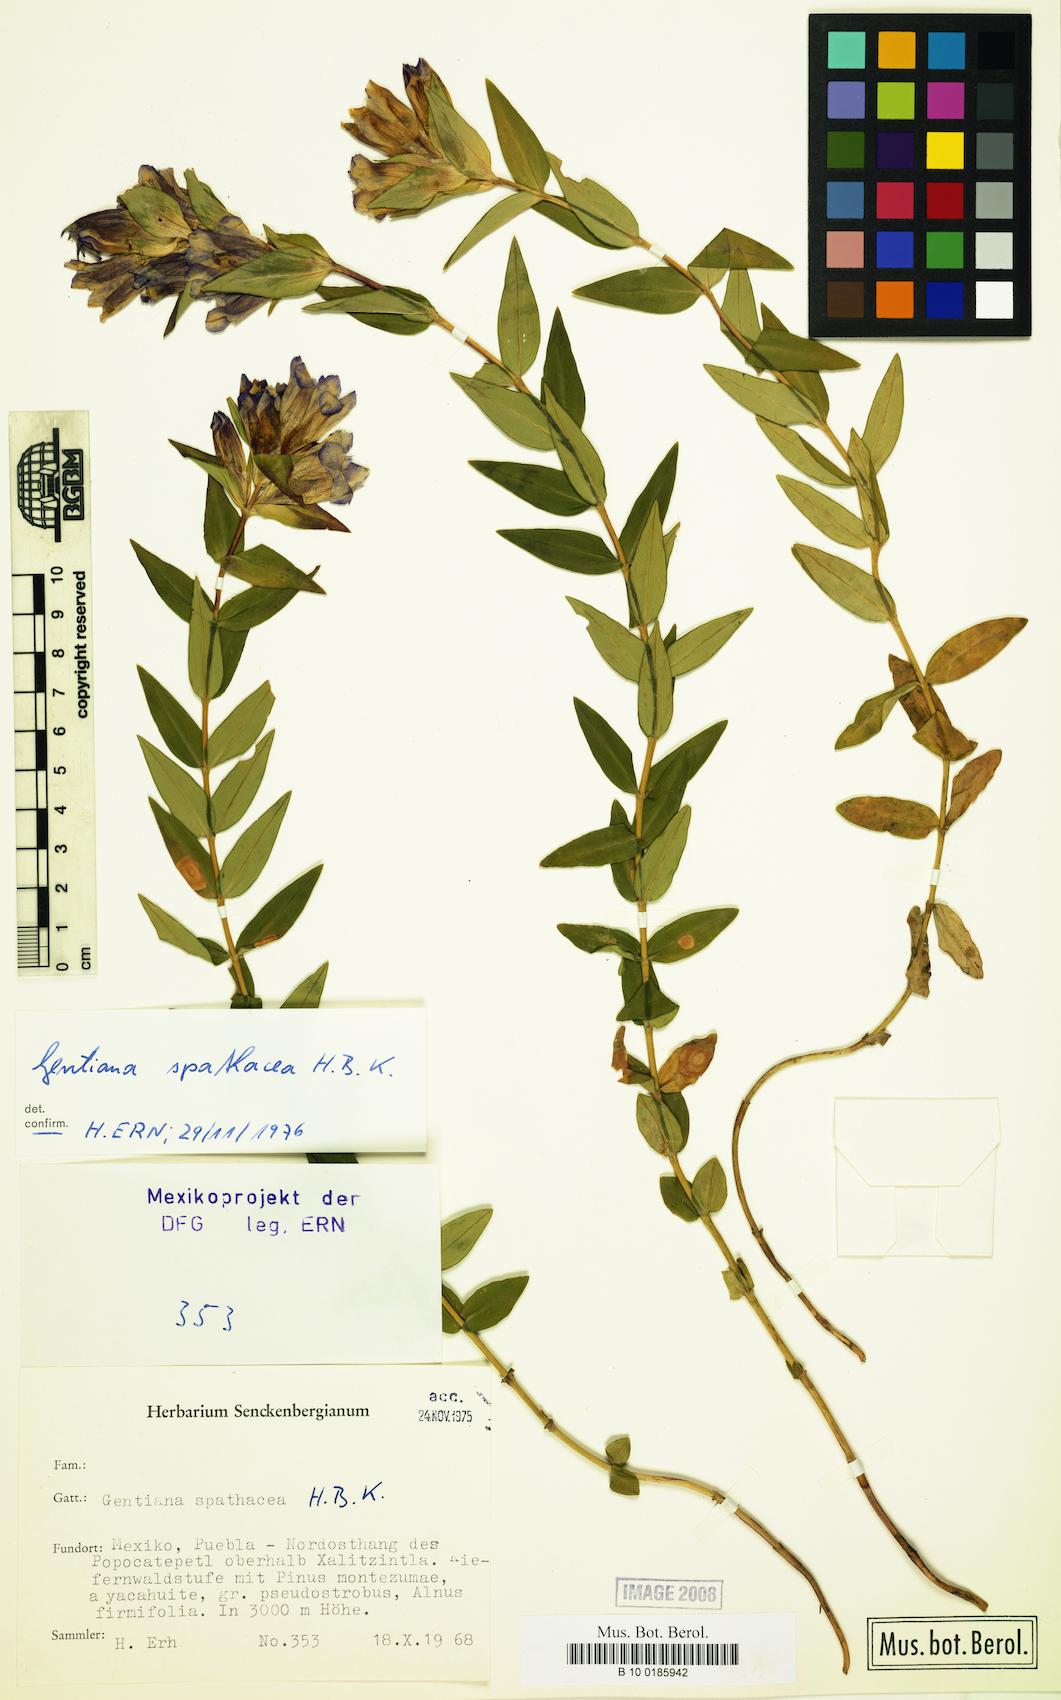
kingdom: Plantae
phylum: Tracheophyta
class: Magnoliopsida
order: Gentianales
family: Gentianaceae
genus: Gentiana
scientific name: Gentiana spathacea
